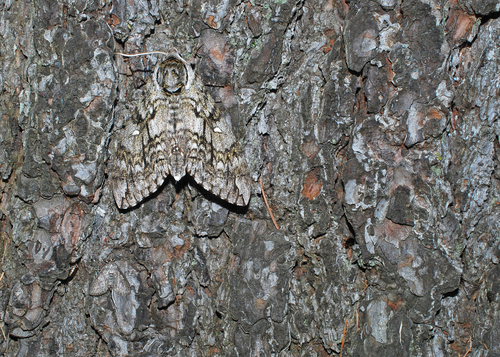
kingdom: Animalia
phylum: Arthropoda
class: Insecta
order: Lepidoptera
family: Sphingidae
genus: Ceratomia
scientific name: Ceratomia undulosa
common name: Waved sphinx
